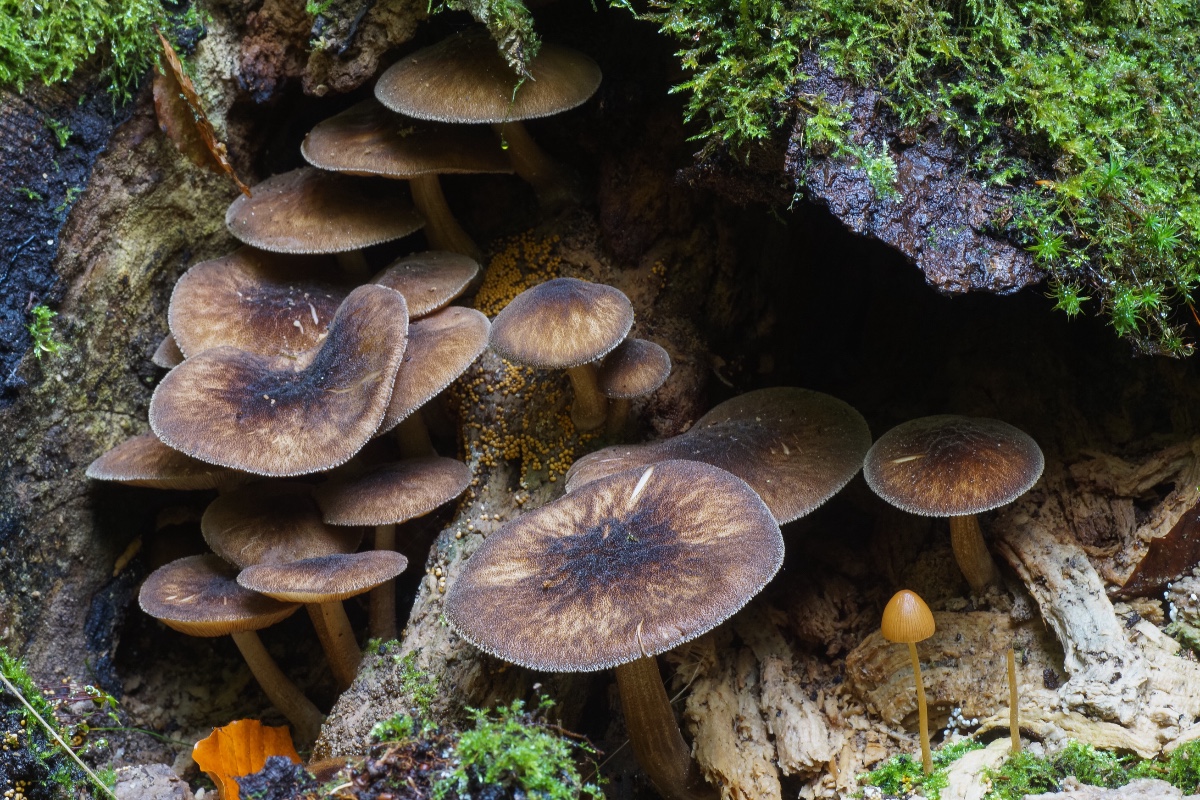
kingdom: Fungi
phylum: Basidiomycota
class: Agaricomycetes
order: Agaricales
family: Pluteaceae
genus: Pluteus
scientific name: Pluteus umbrosus
